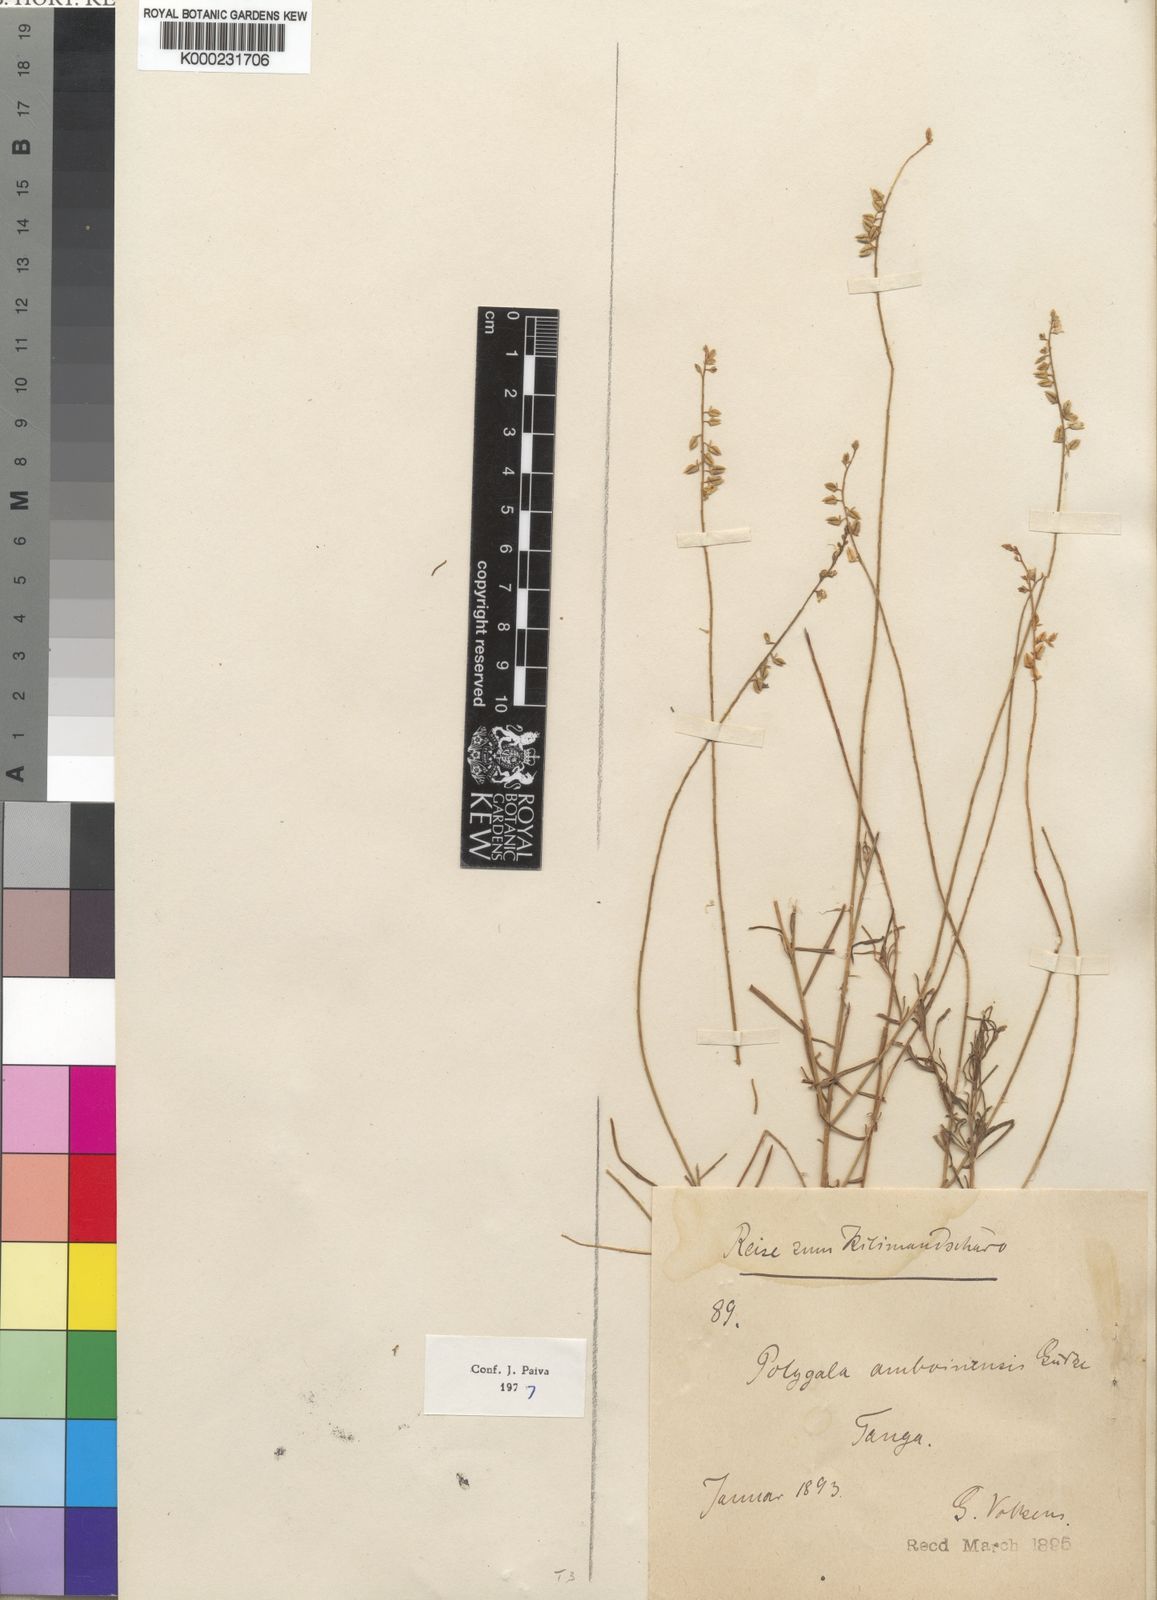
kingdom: Plantae
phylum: Tracheophyta
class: Magnoliopsida
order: Fabales
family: Polygalaceae
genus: Polygala
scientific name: Polygala
